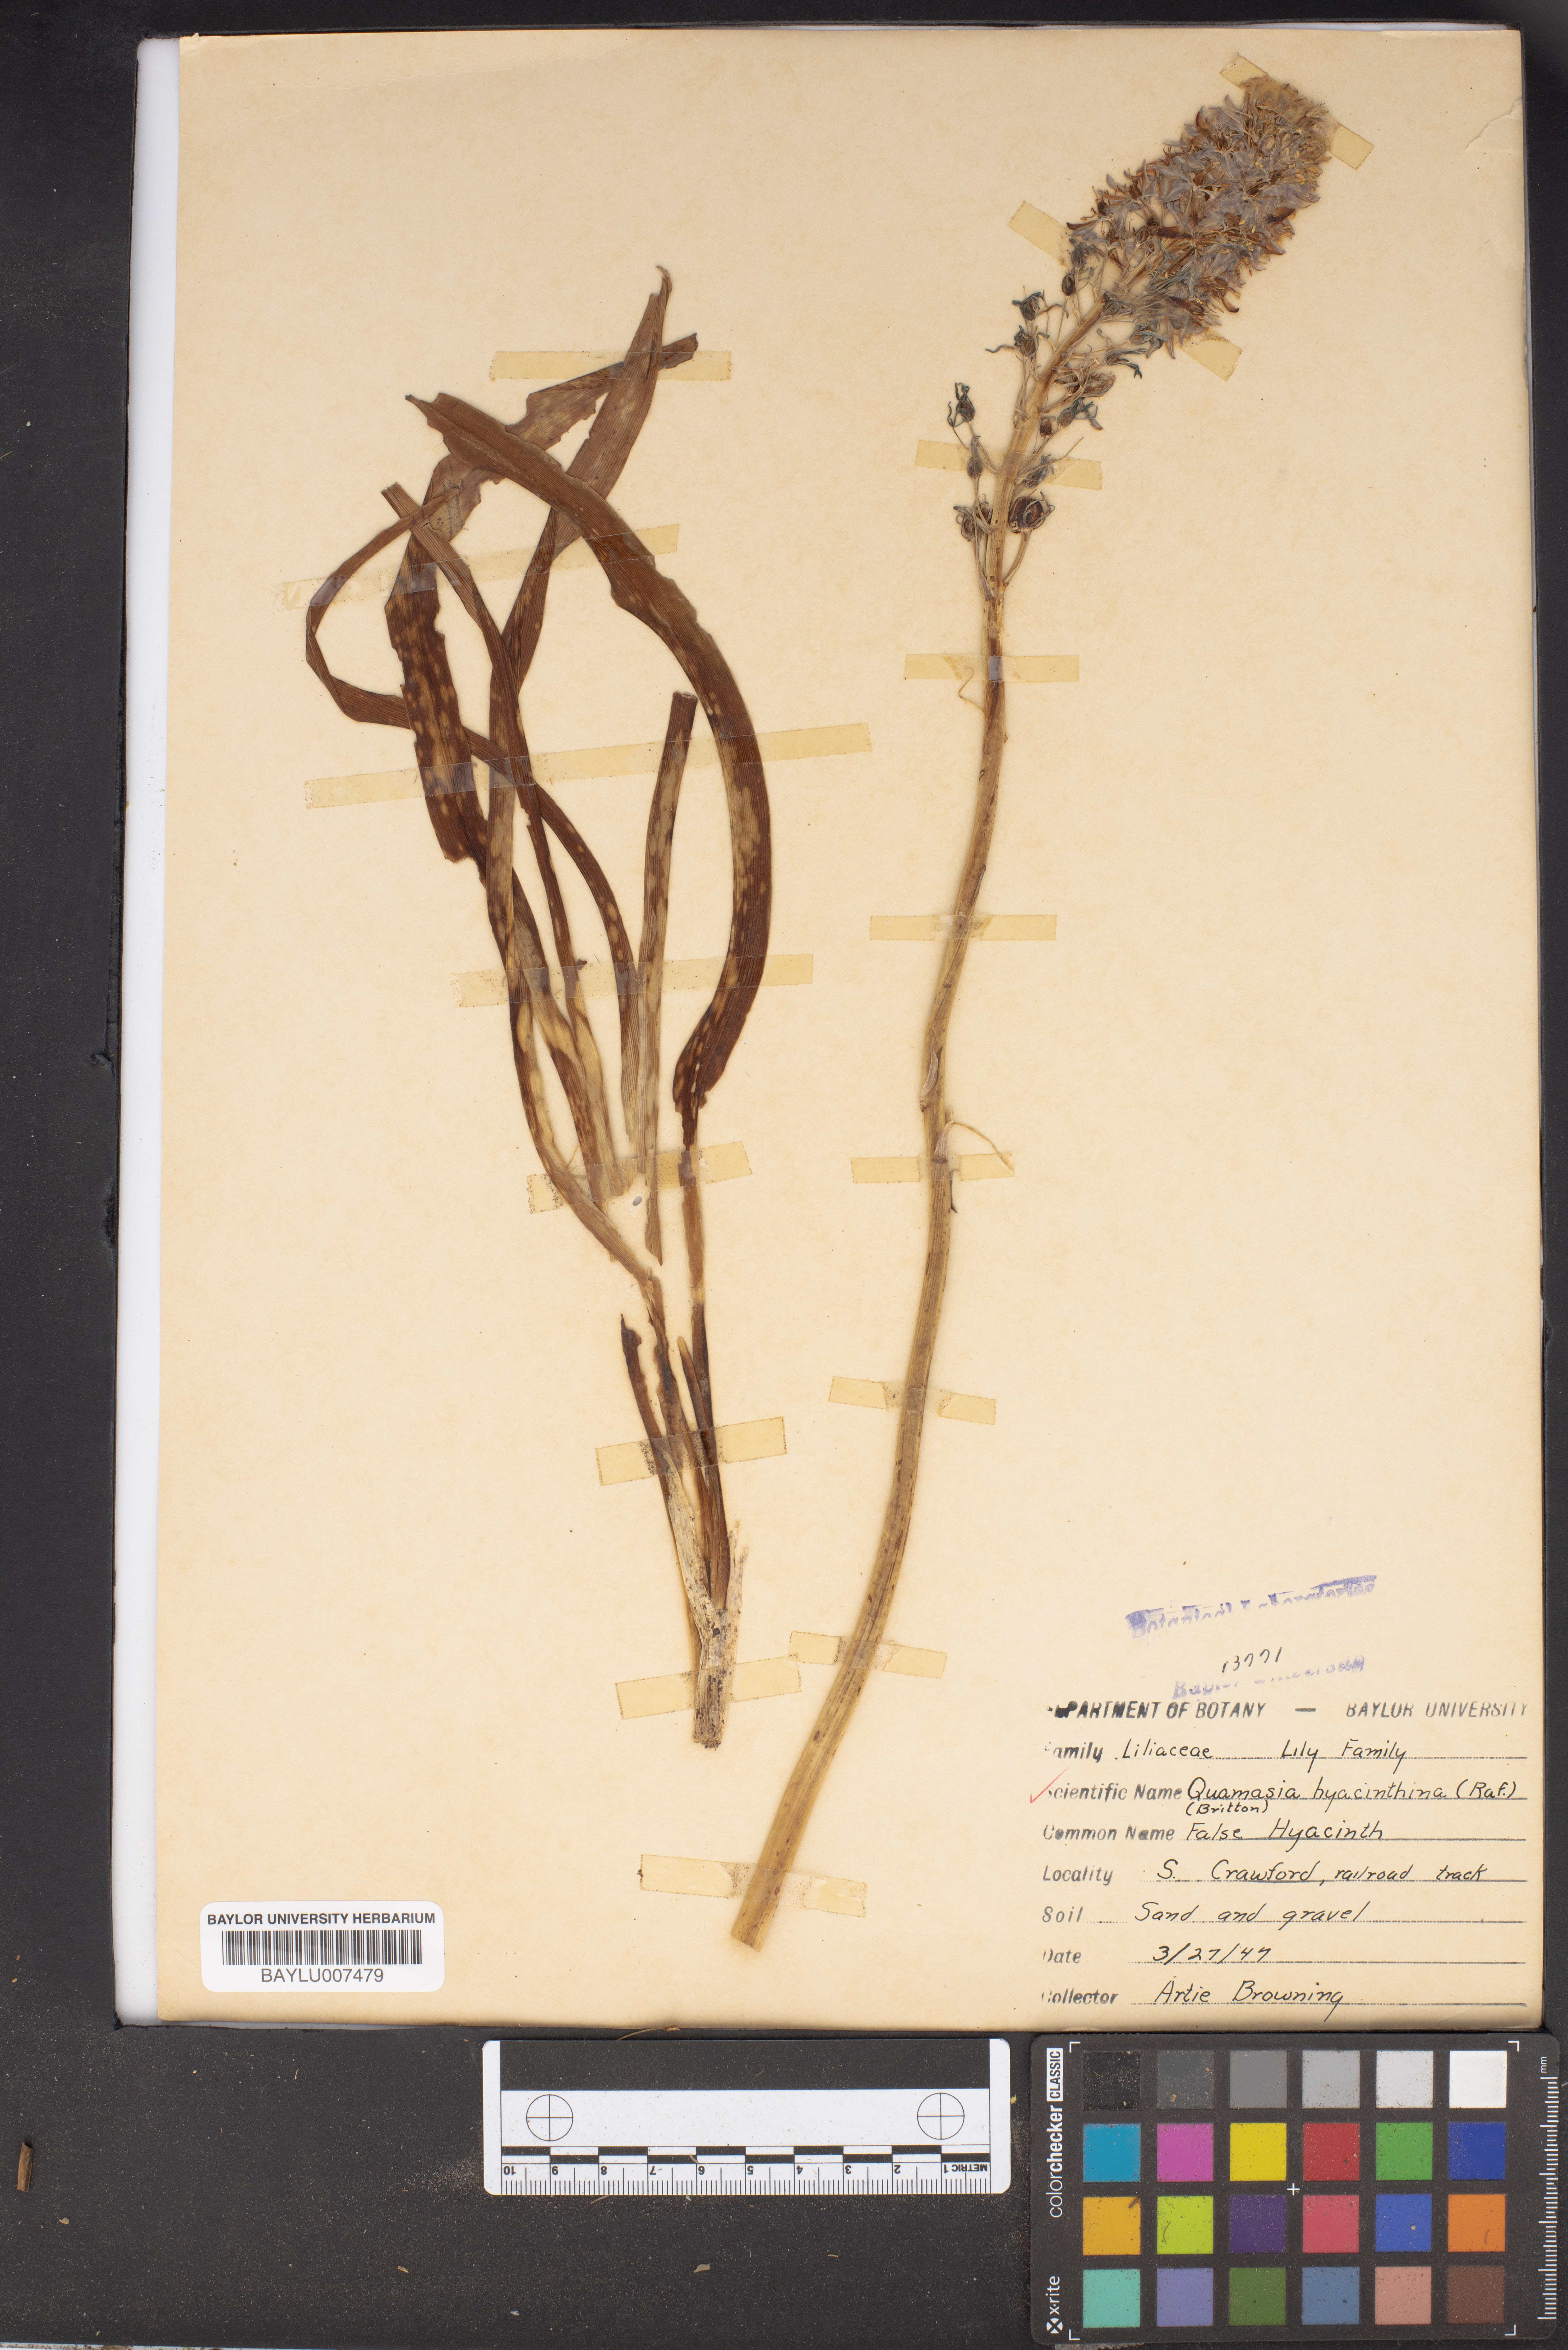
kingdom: Plantae
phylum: Tracheophyta
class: Liliopsida
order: Asparagales
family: Asparagaceae
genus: Camassia
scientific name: Camassia scilloides
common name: Wild hyacinth
